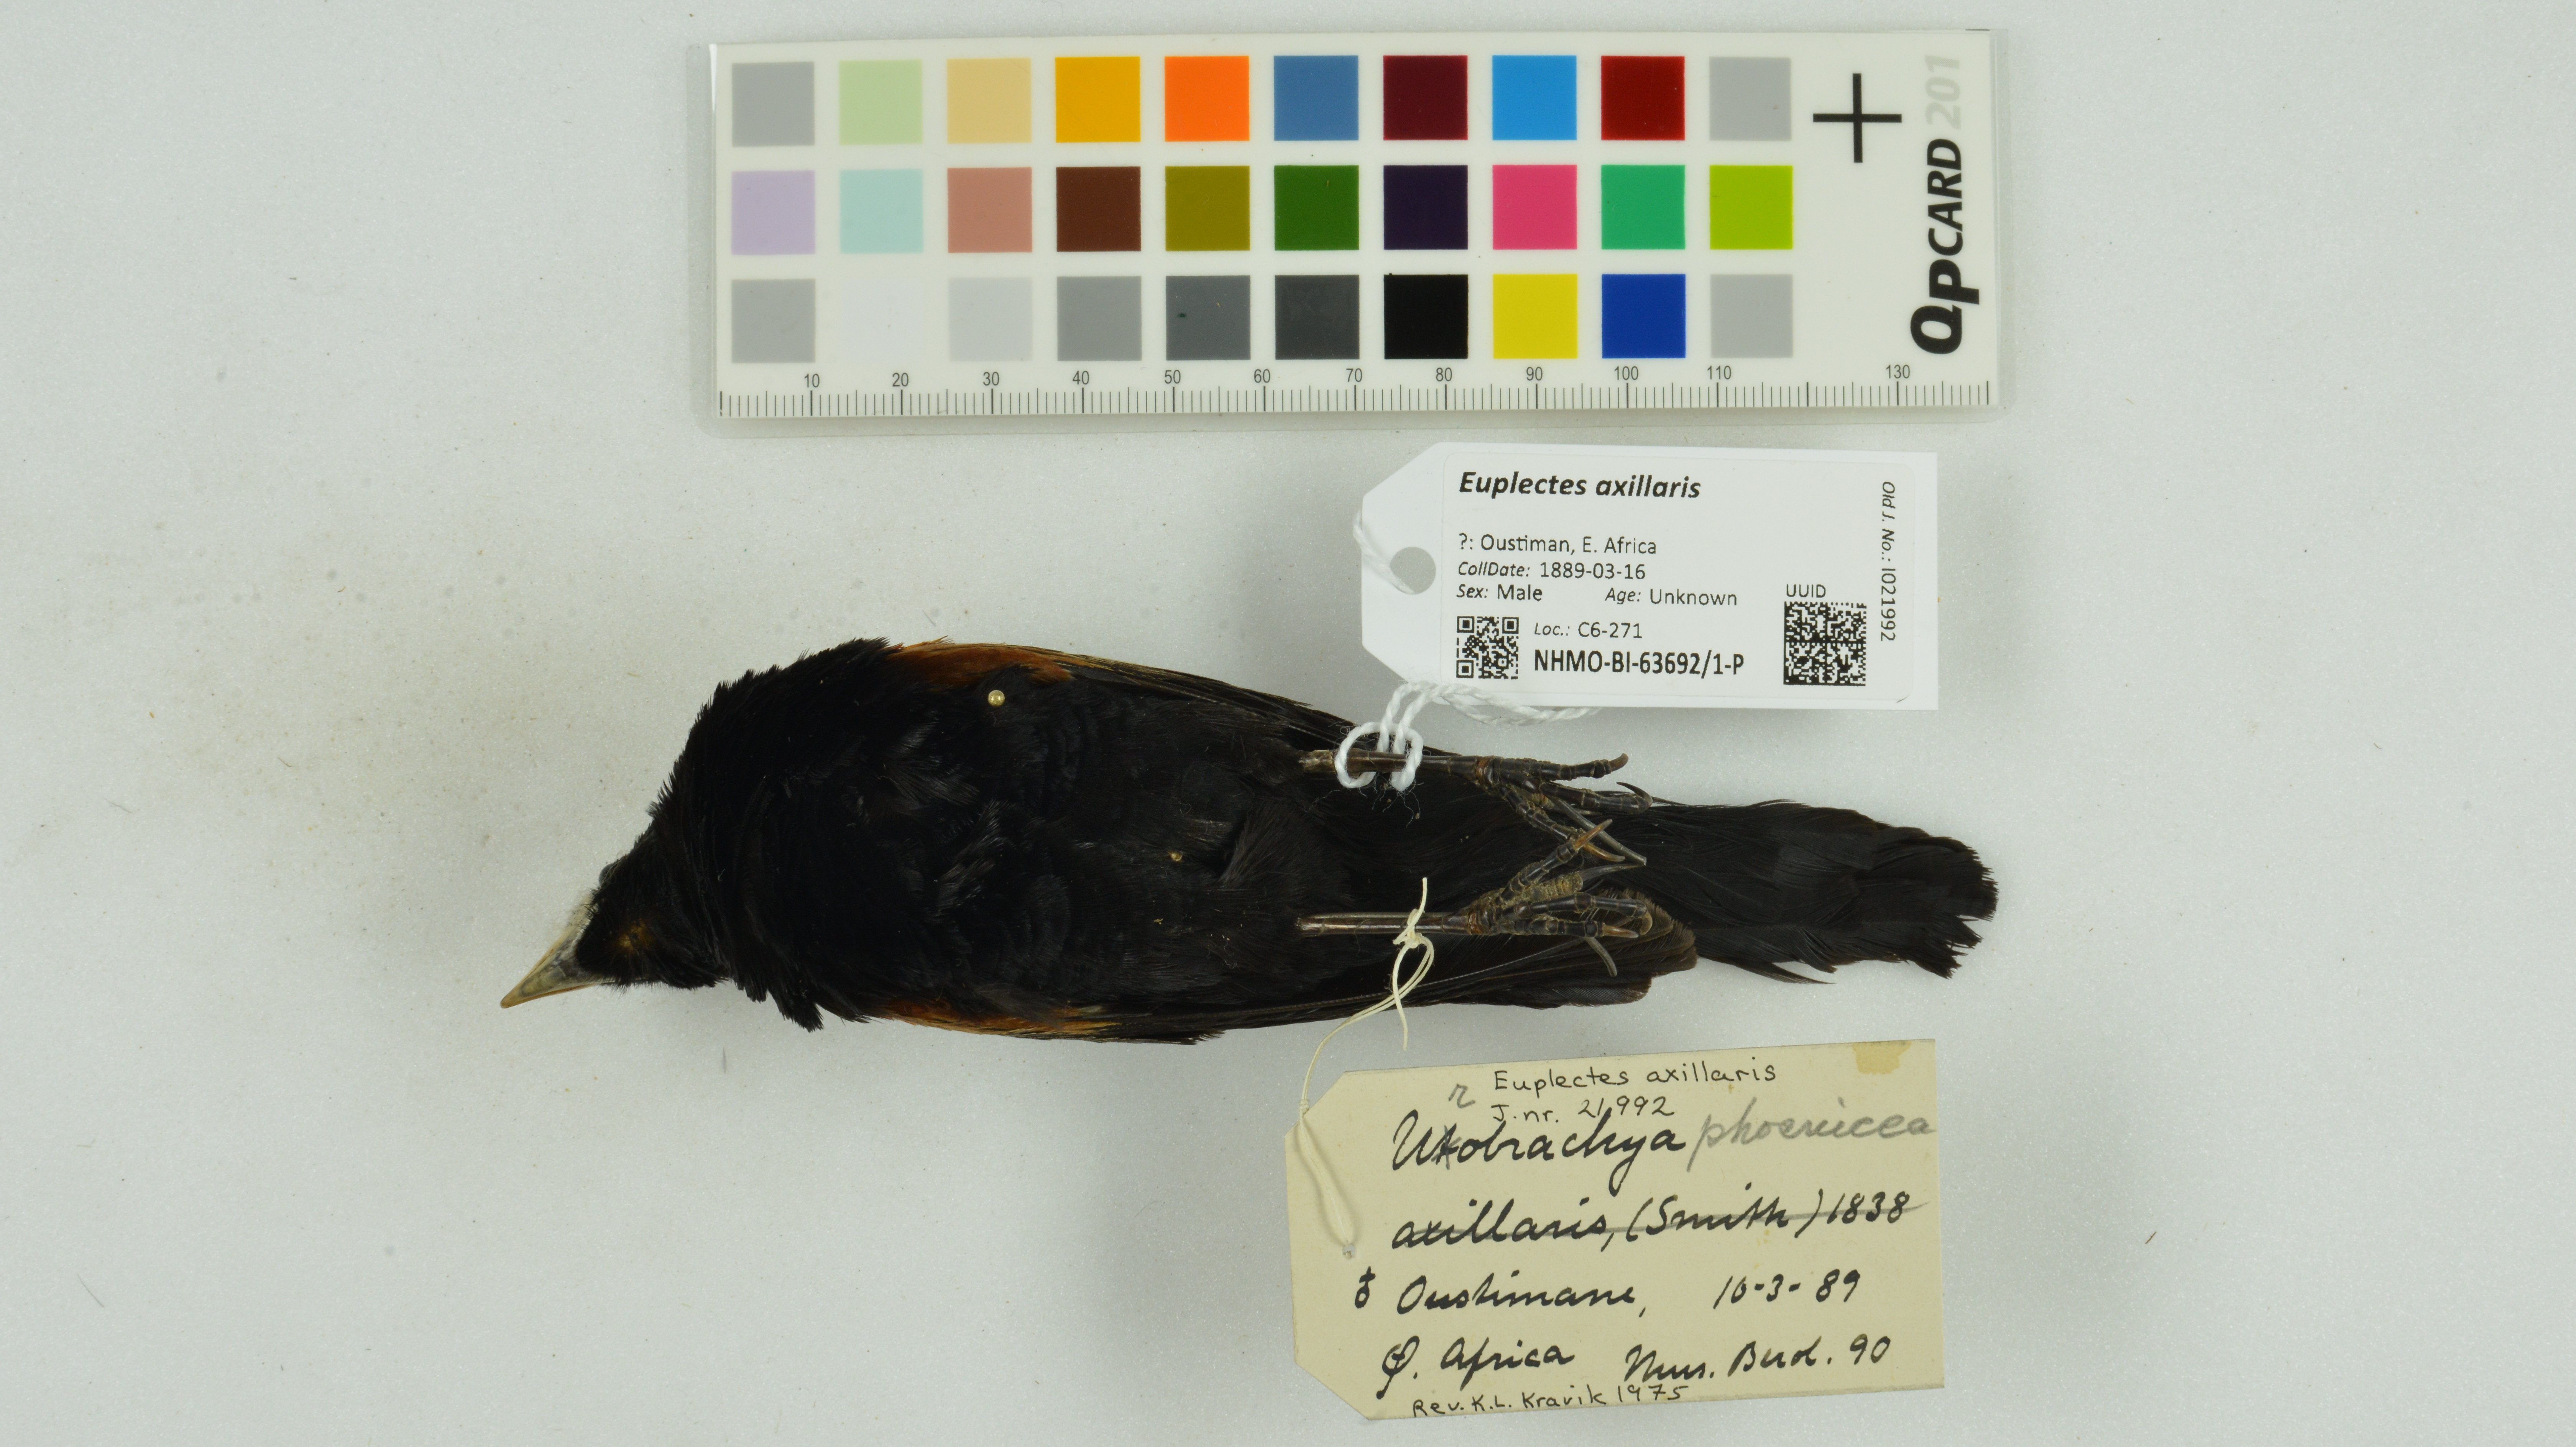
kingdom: Animalia
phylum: Chordata
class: Aves
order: Passeriformes
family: Ploceidae
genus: Euplectes
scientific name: Euplectes axillaris
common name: Fan-tailed widowbird
